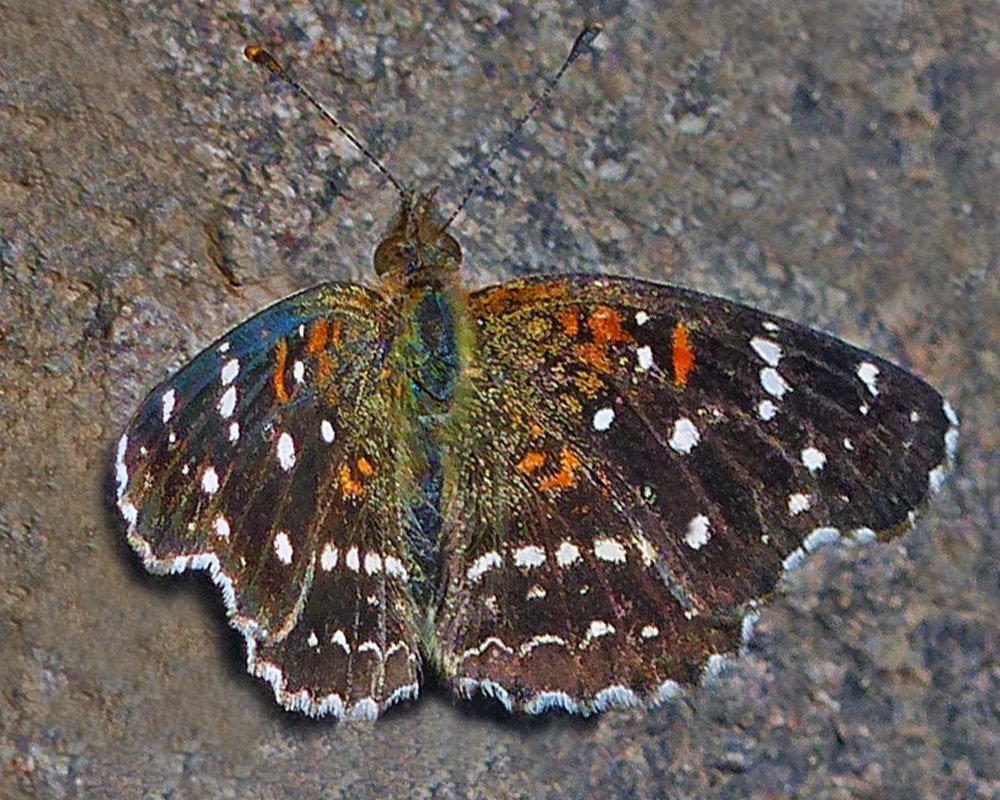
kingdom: Animalia
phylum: Arthropoda
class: Insecta
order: Lepidoptera
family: Nymphalidae
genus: Anthanassa
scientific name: Anthanassa texana
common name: Texan Crescent
